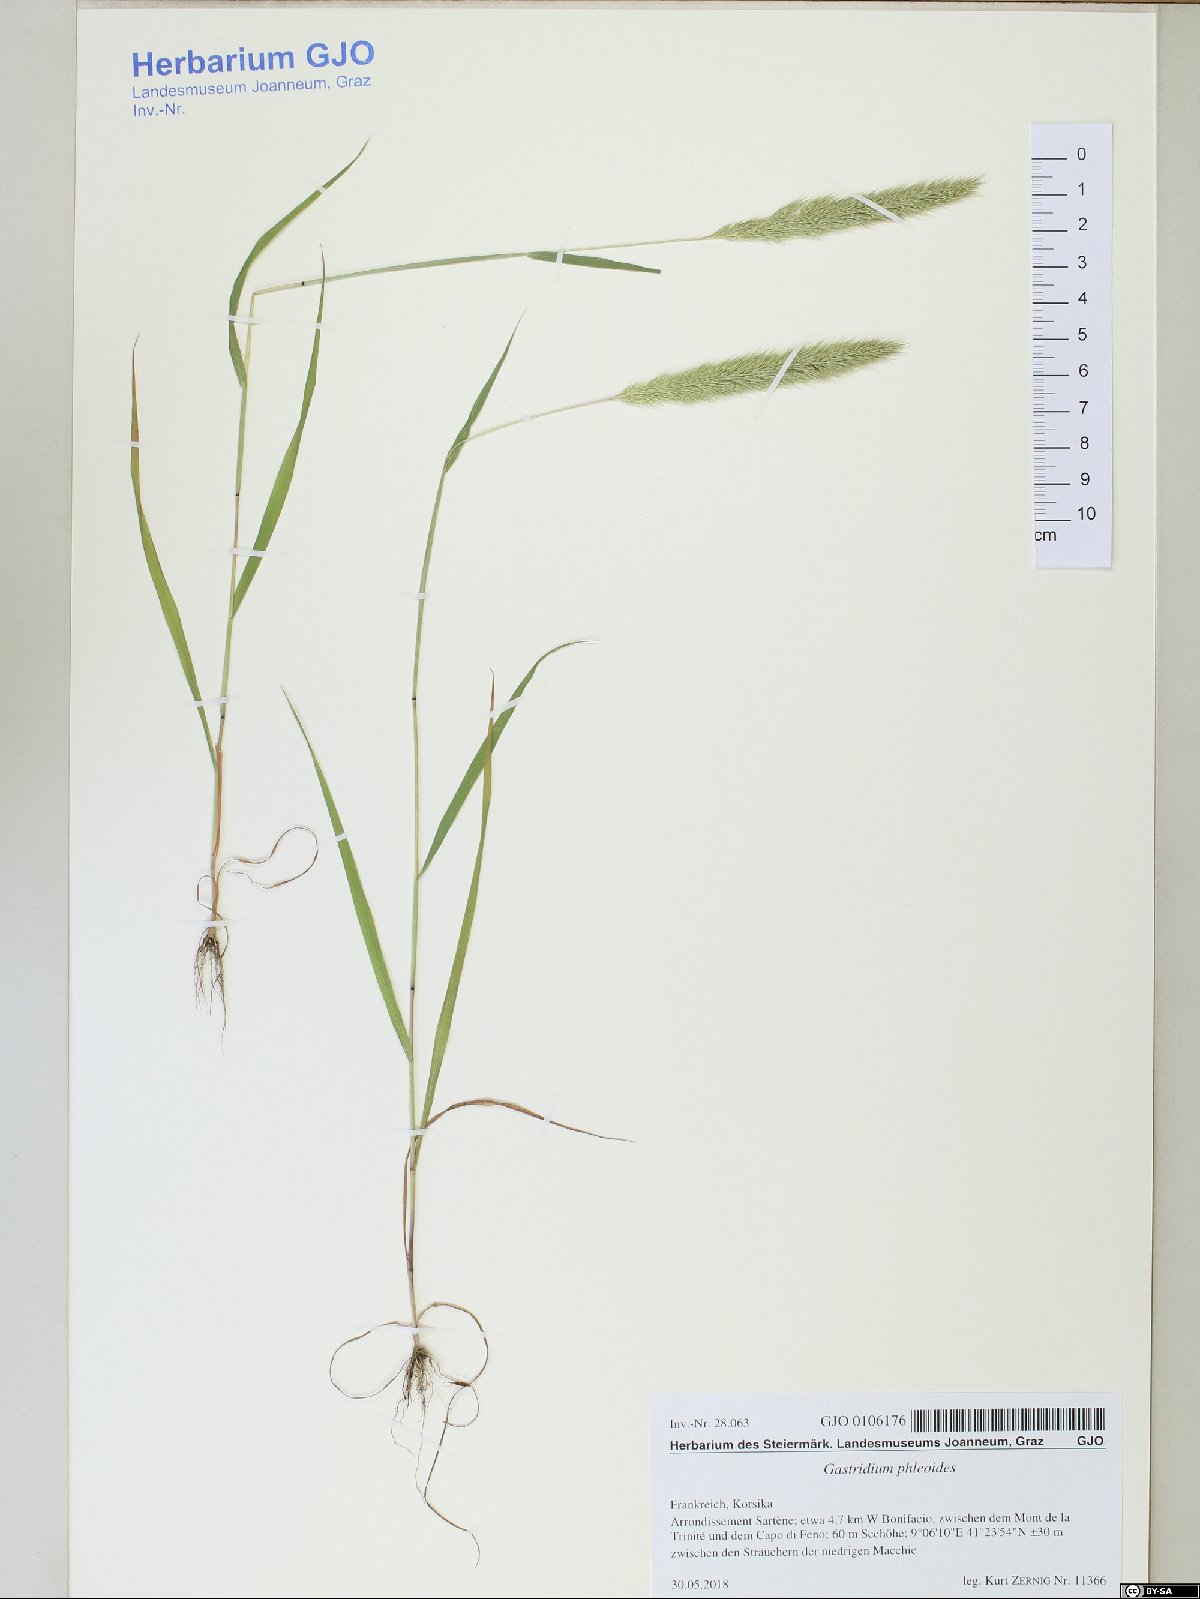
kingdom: Plantae
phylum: Tracheophyta
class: Liliopsida
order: Poales
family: Poaceae
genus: Gastridium
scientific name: Gastridium phleoides
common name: Nit grass
